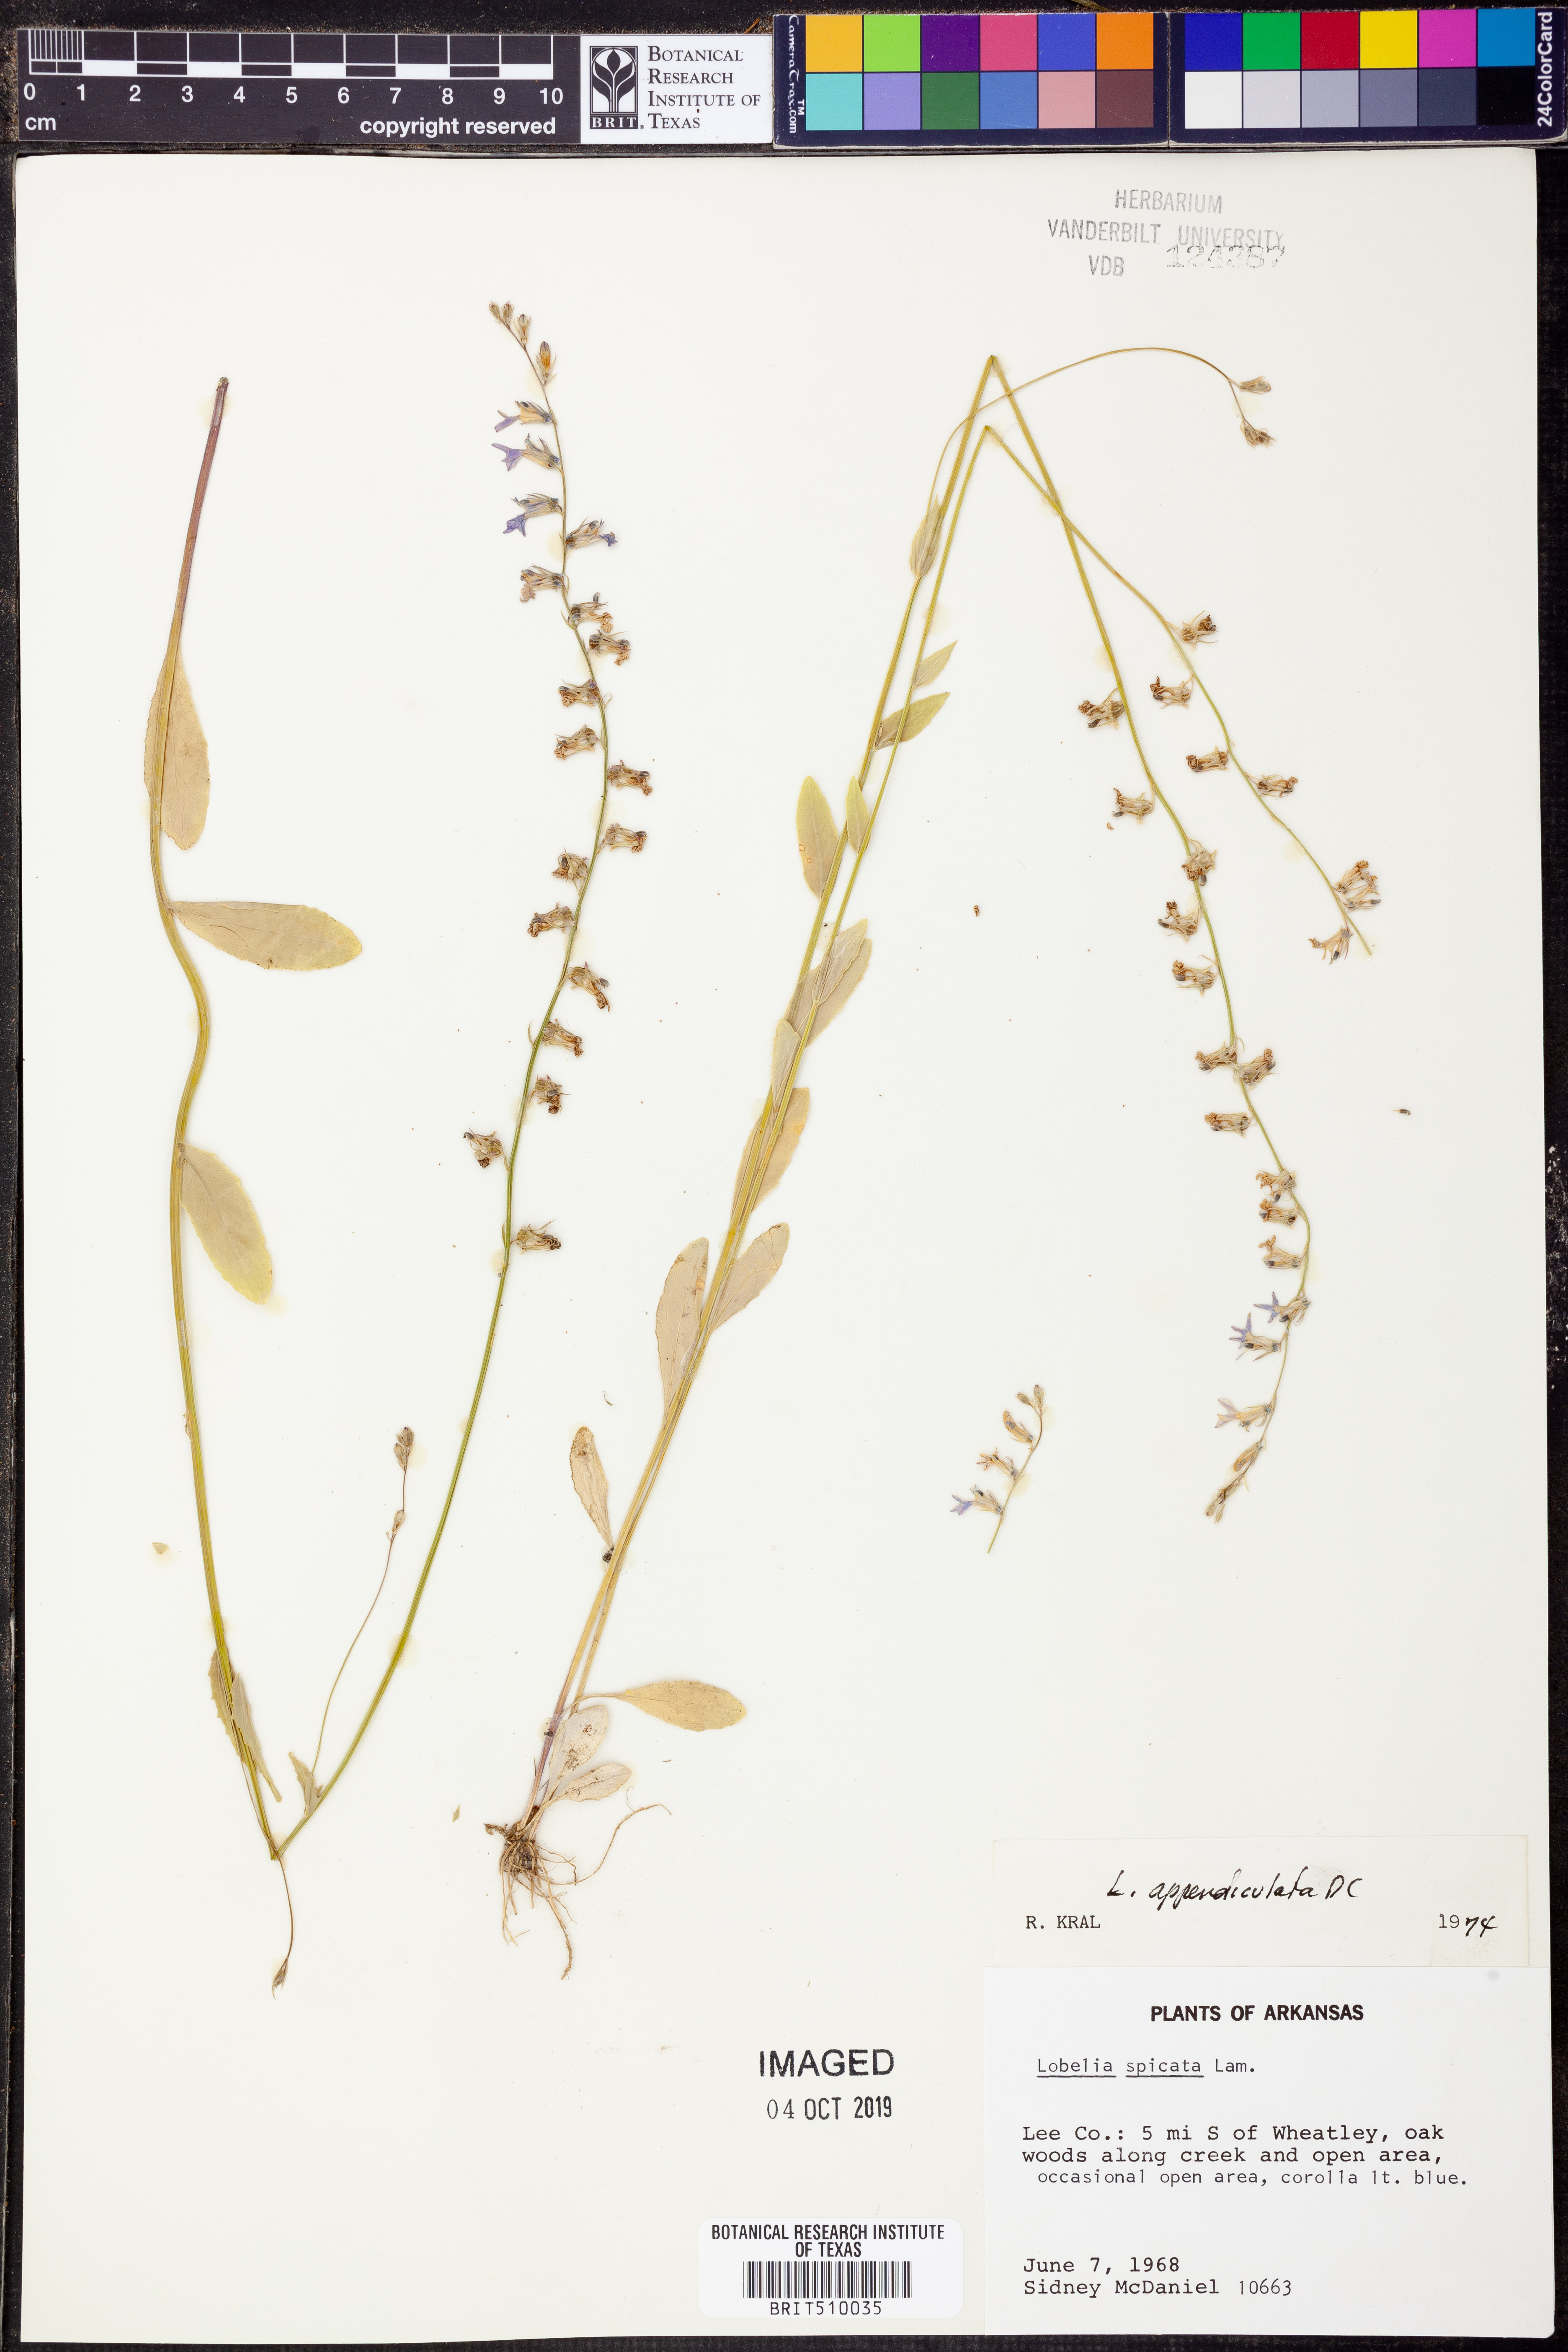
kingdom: Plantae
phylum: Tracheophyta
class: Magnoliopsida
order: Asterales
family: Campanulaceae
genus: Lobelia
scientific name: Lobelia appendiculata
